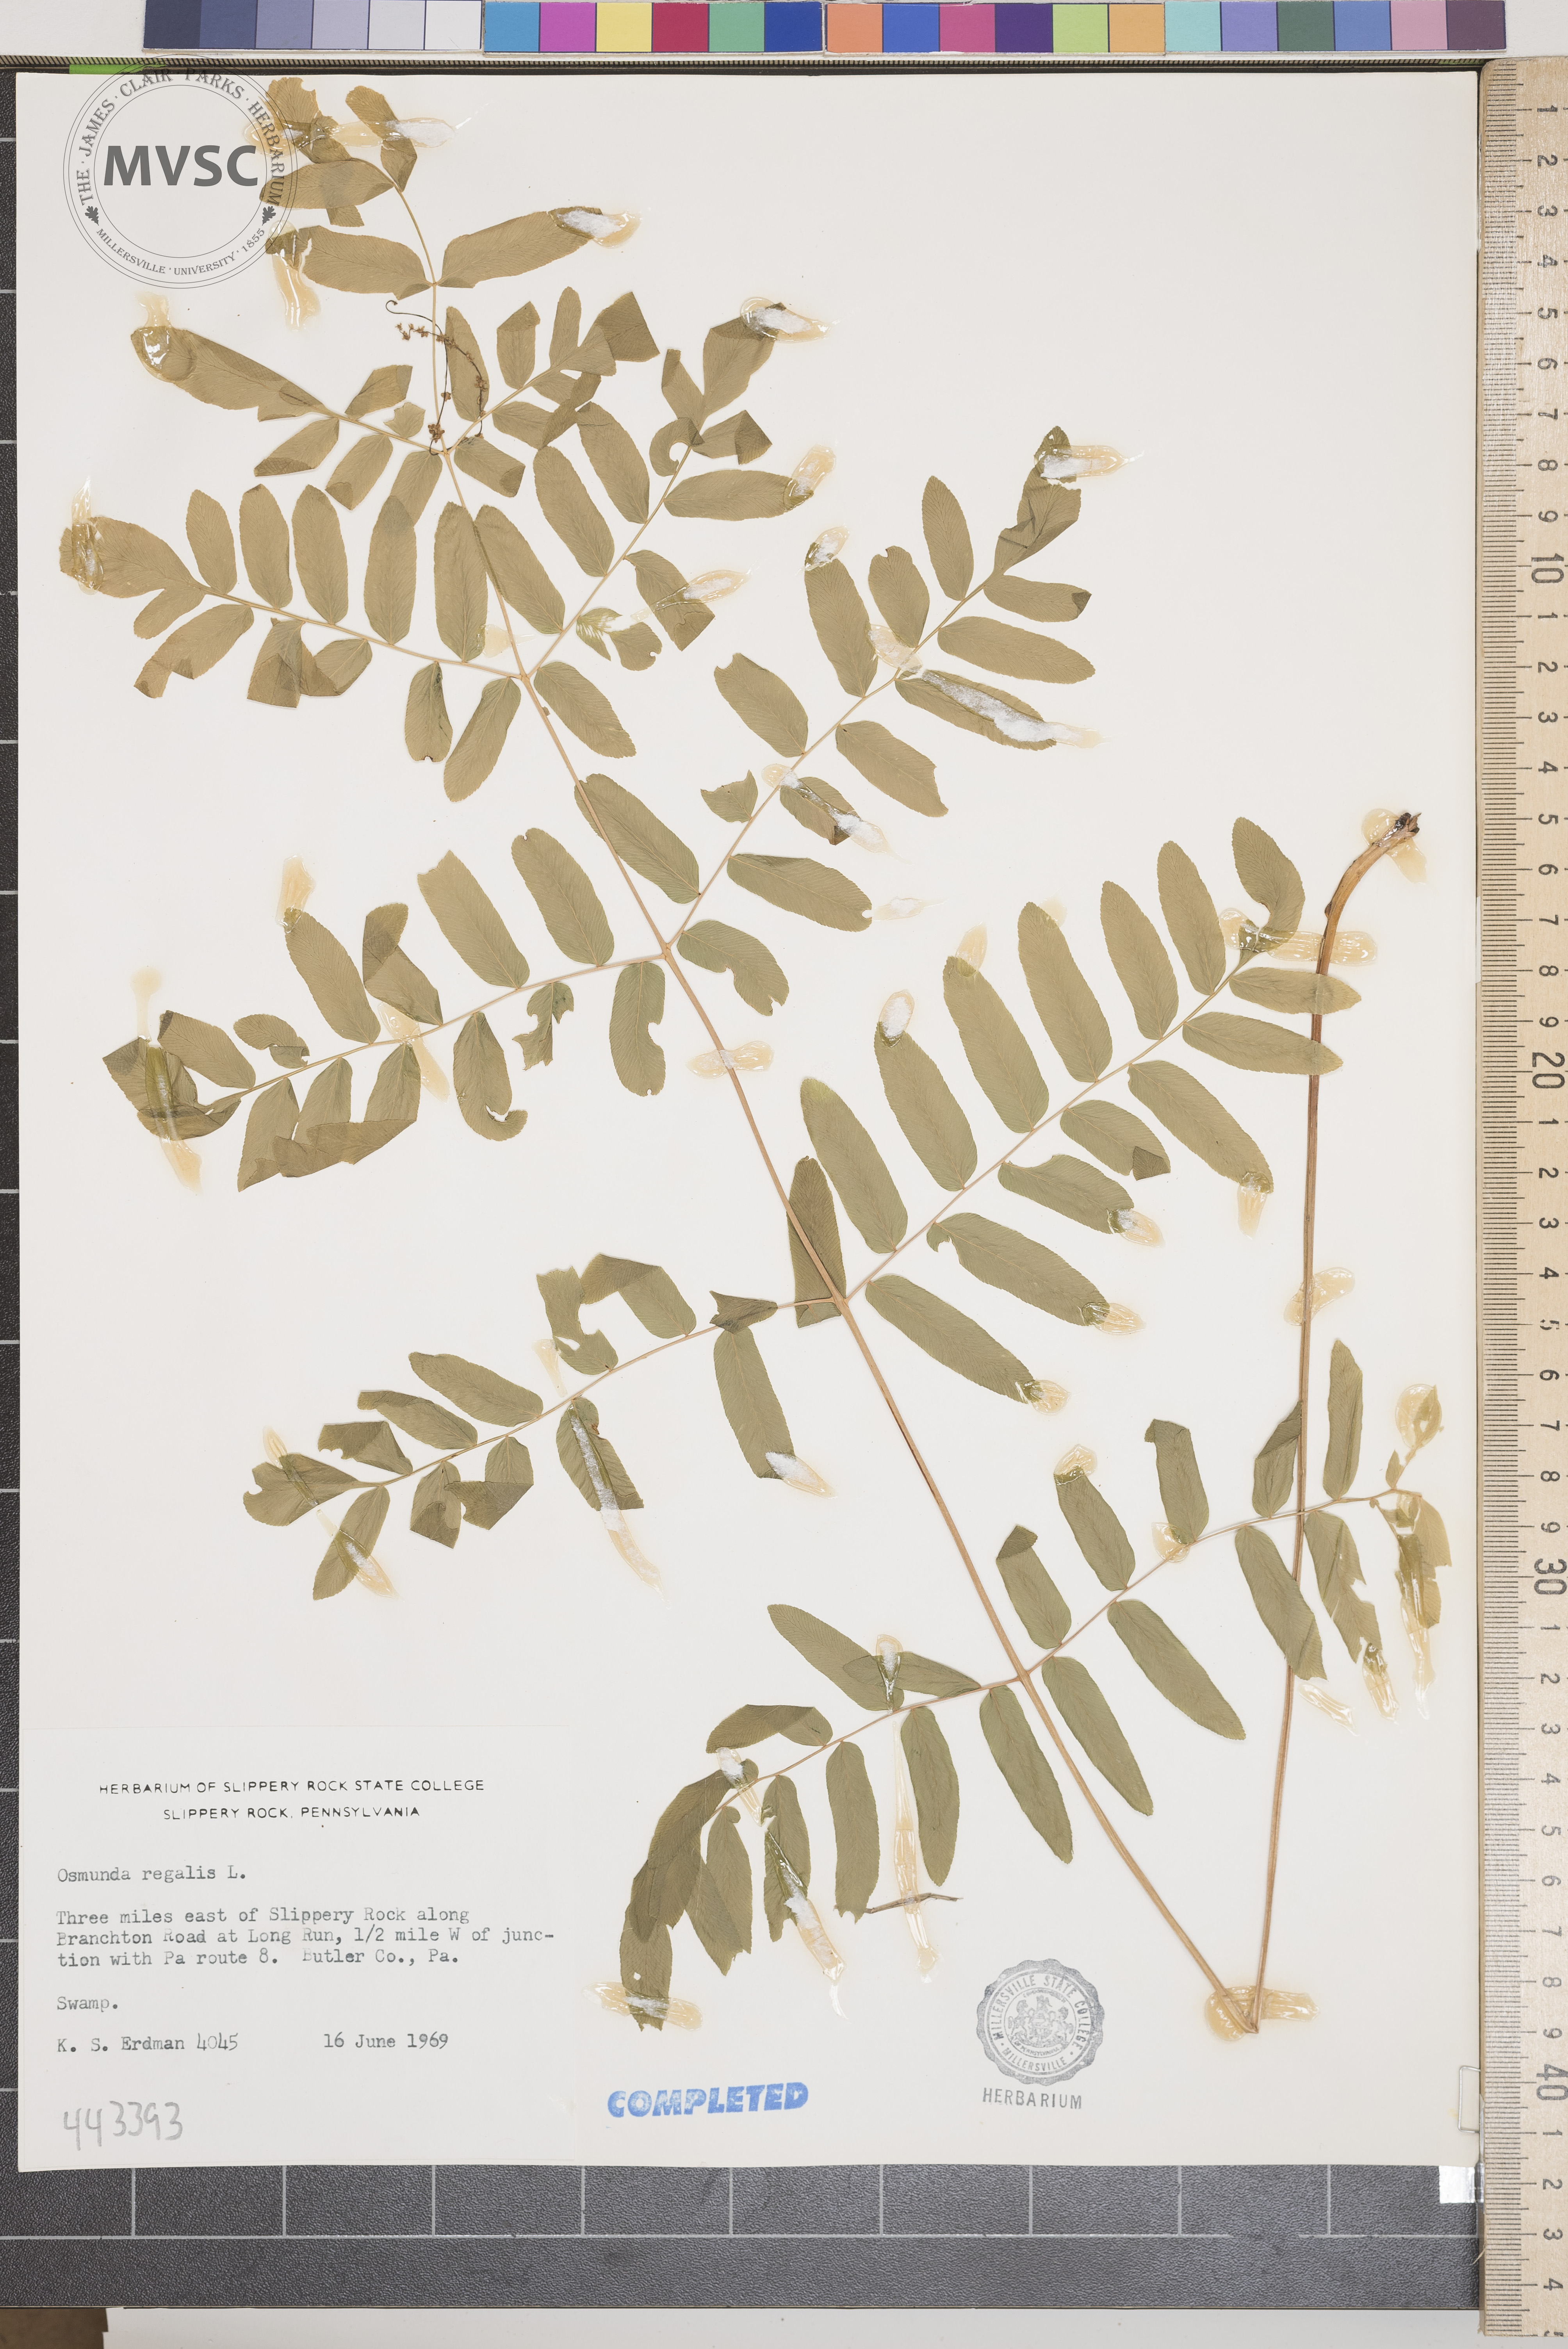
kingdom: Plantae
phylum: Tracheophyta
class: Polypodiopsida
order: Osmundales
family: Osmundaceae
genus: Osmunda
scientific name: Osmunda regalis
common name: Royal fern
